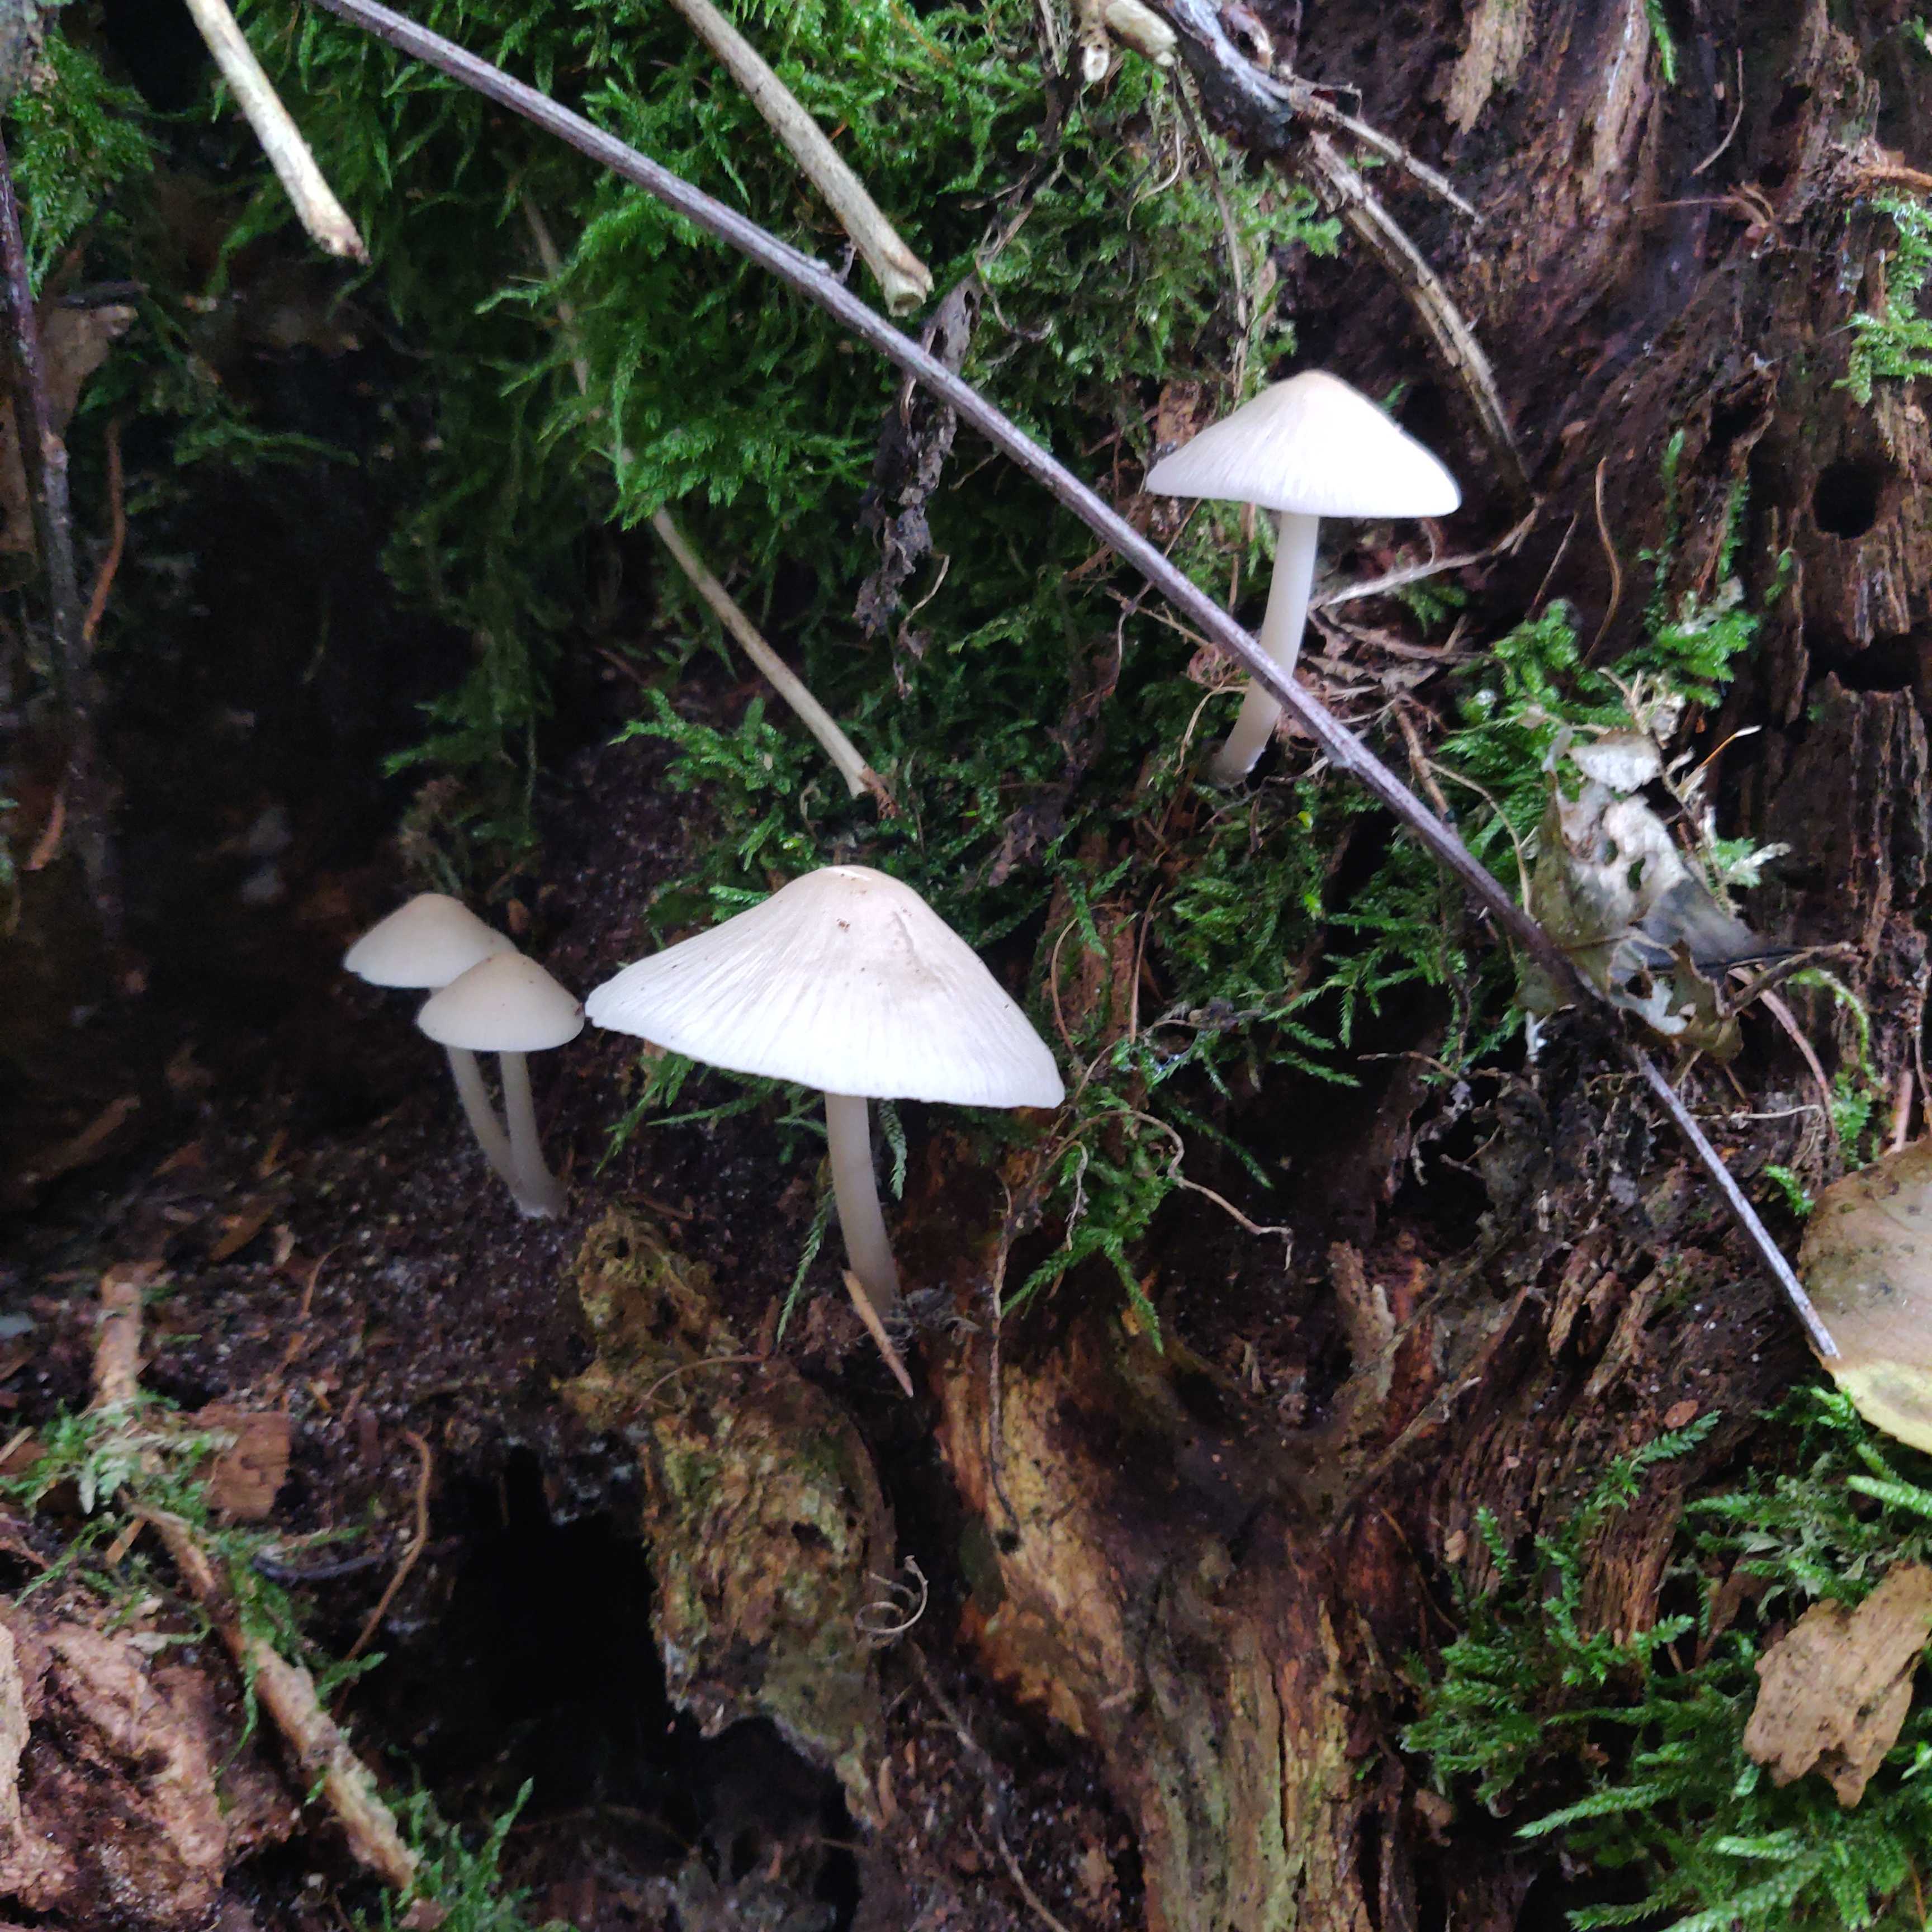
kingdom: Fungi
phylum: Basidiomycota
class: Agaricomycetes
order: Agaricales
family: Mycenaceae
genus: Mycena
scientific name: Mycena galericulata
